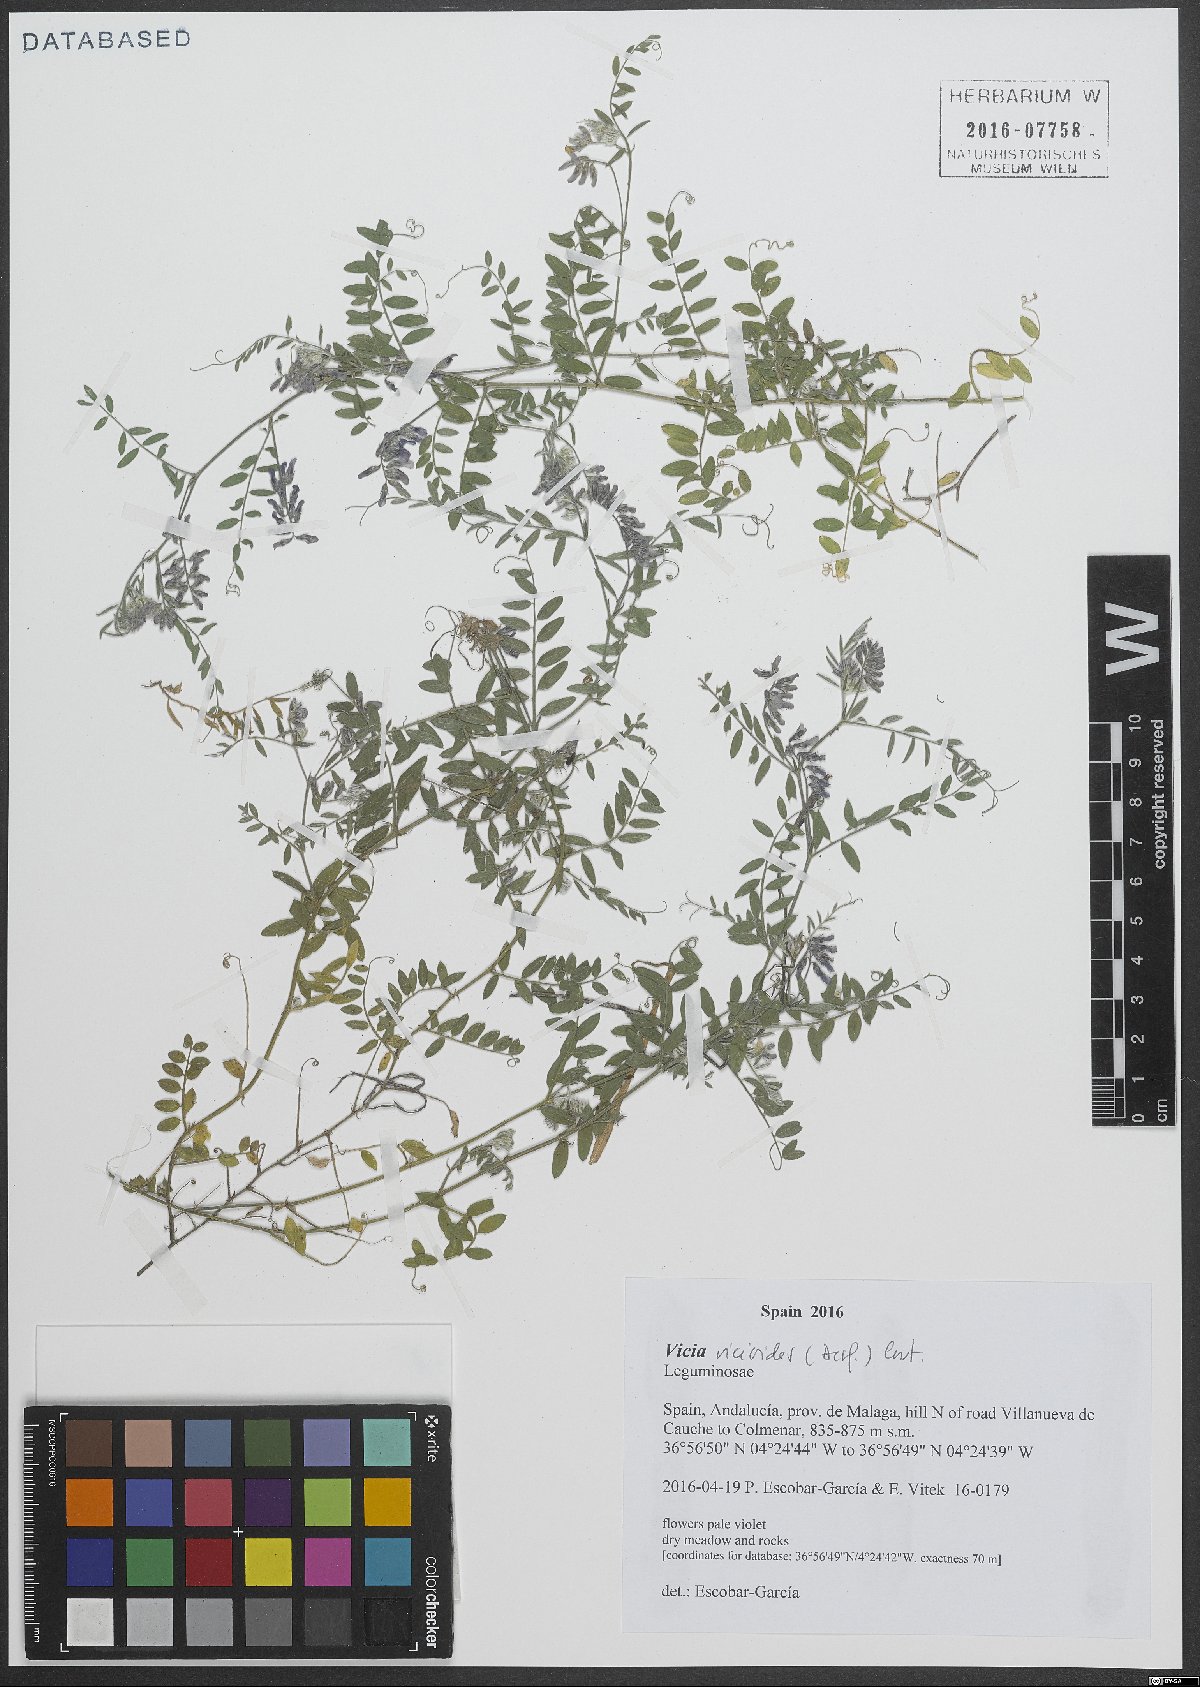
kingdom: Plantae
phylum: Tracheophyta
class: Magnoliopsida
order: Fabales
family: Fabaceae
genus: Vicia
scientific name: Vicia vicioides
